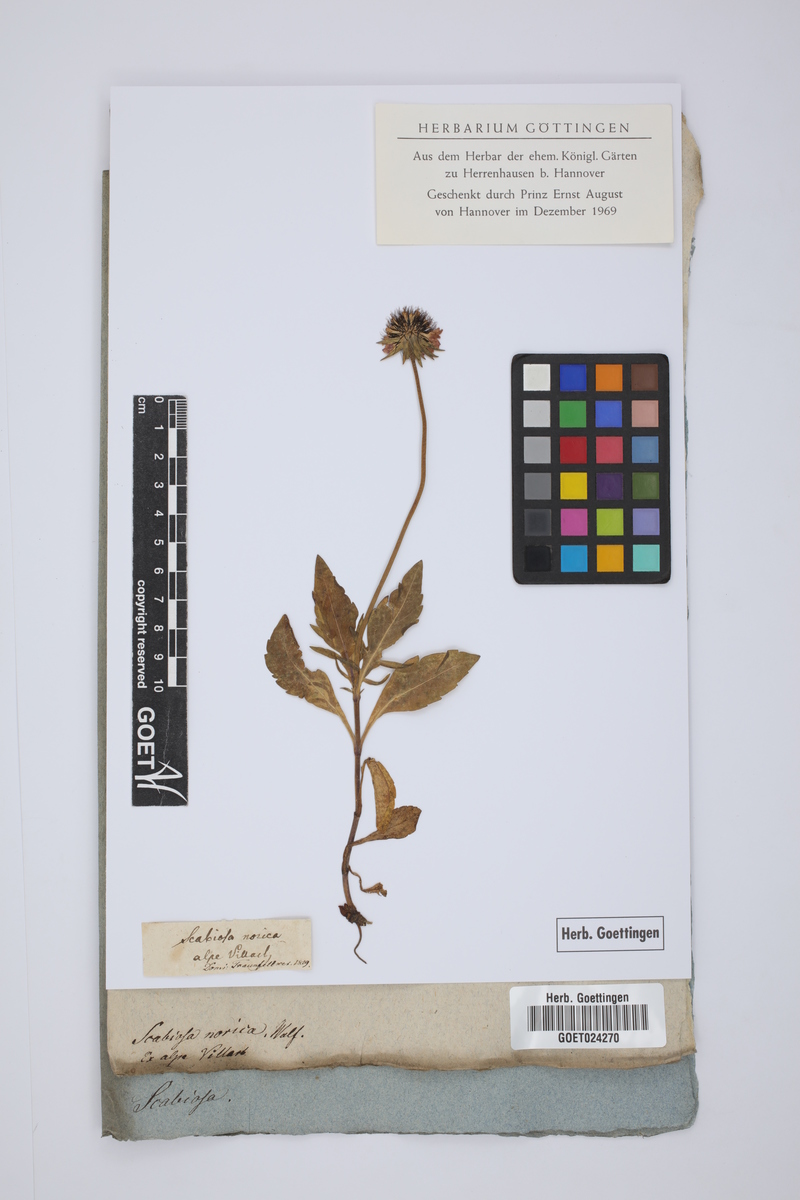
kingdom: Plantae
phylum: Tracheophyta
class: Magnoliopsida
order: Dipsacales
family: Caprifoliaceae
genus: Scabiosa
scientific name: Scabiosa lucida
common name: Shining scabious
